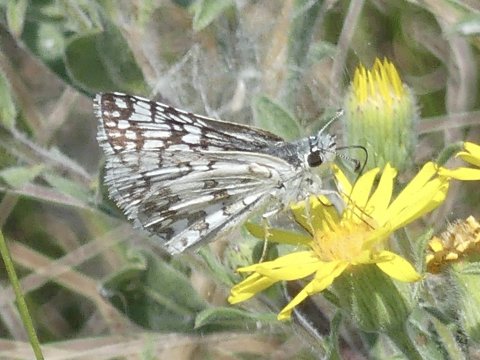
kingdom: Animalia
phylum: Arthropoda
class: Insecta
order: Lepidoptera
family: Hesperiidae
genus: Pyrgus
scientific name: Pyrgus communis
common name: Common Checkered-Skipper
